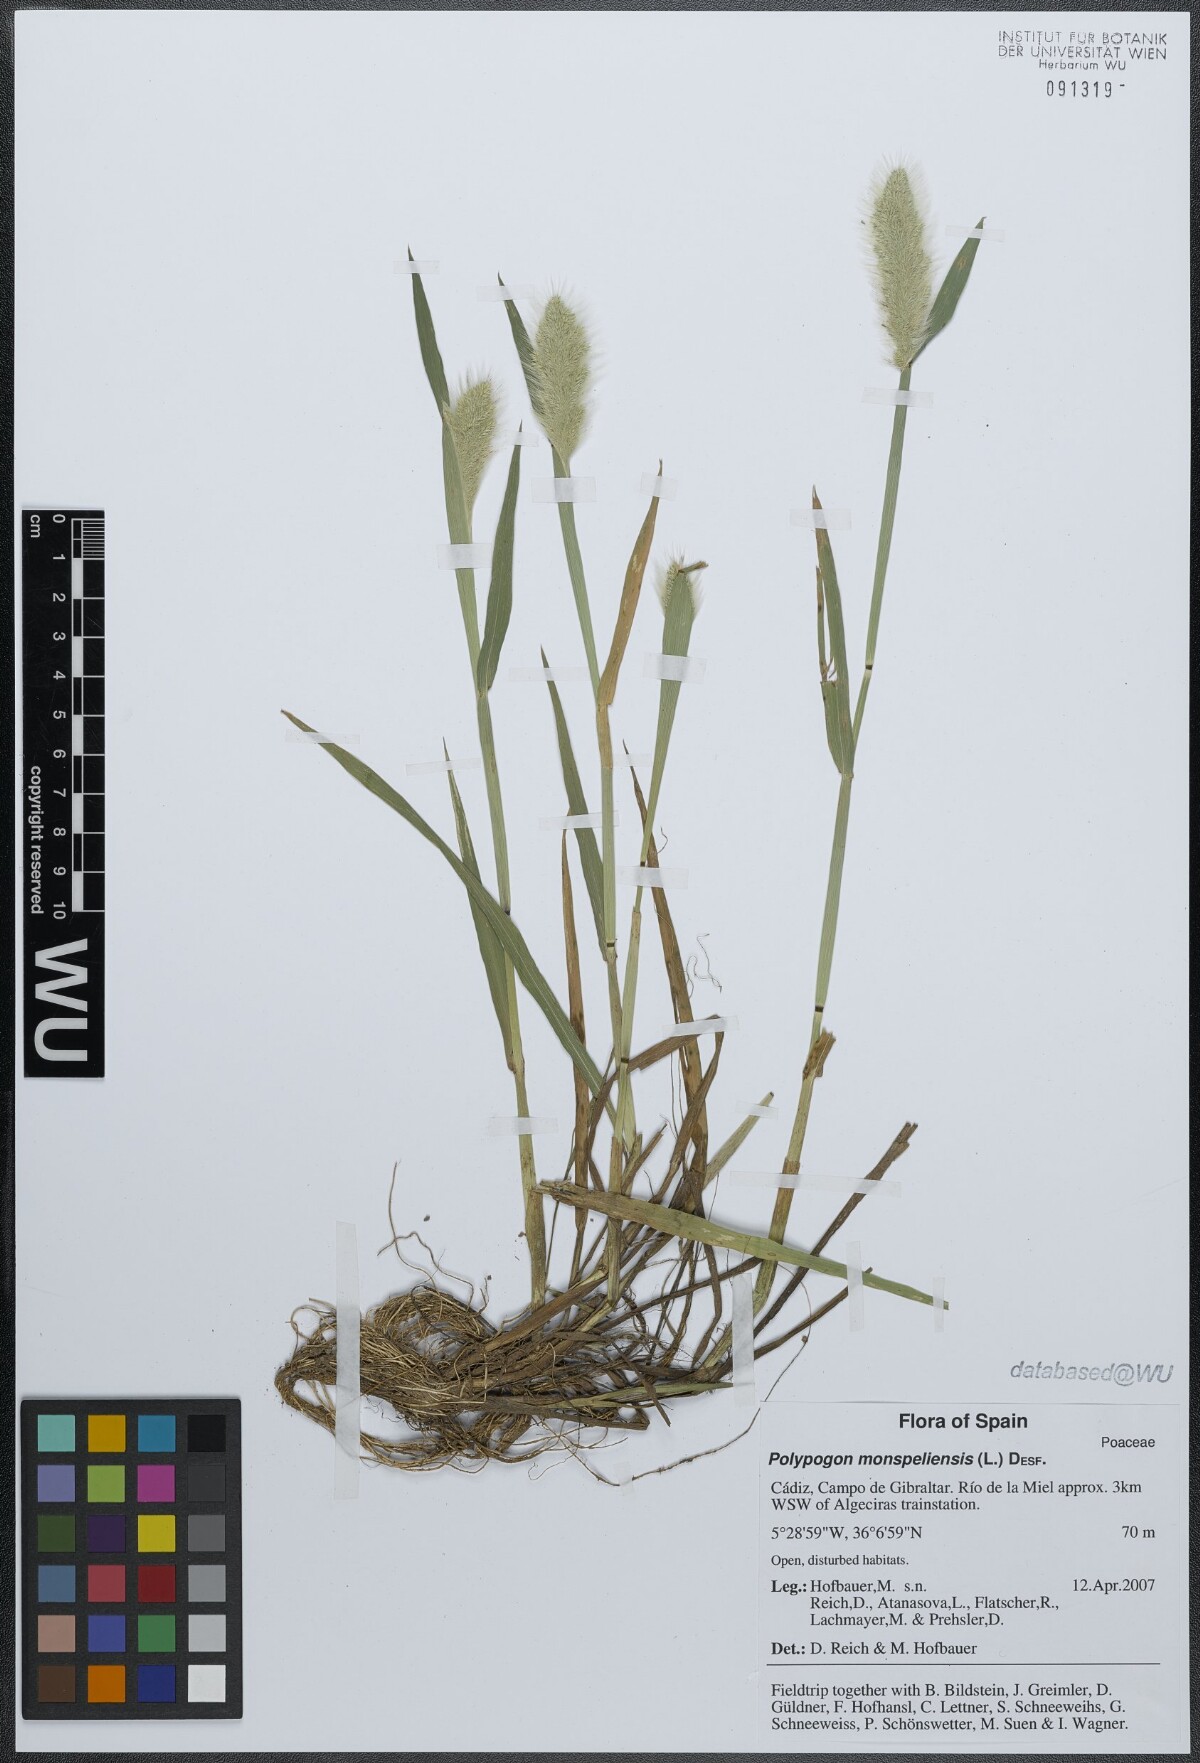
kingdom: Plantae
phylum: Tracheophyta
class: Liliopsida
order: Poales
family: Poaceae
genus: Polypogon
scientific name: Polypogon monspeliensis
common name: Annual rabbitsfoot grass
